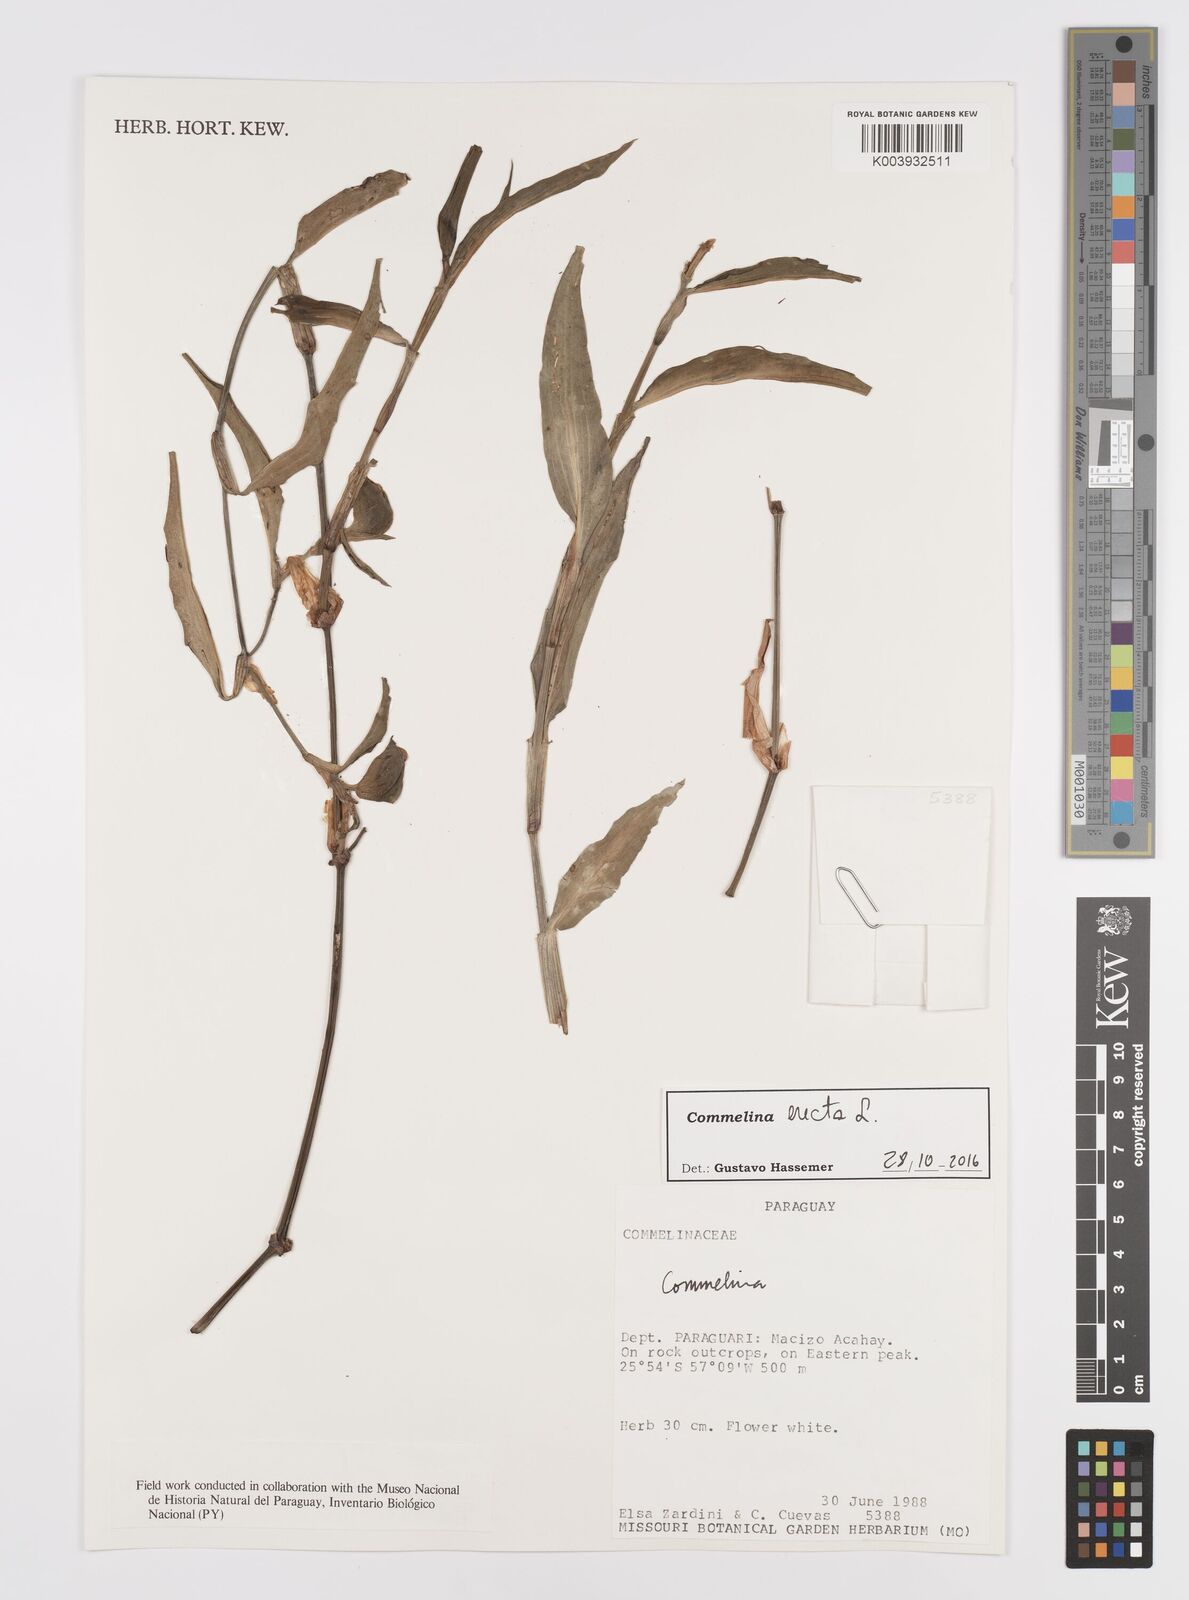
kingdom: Plantae
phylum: Tracheophyta
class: Liliopsida
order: Commelinales
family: Commelinaceae
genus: Commelina
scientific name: Commelina erecta
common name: Blousel blommetjie
